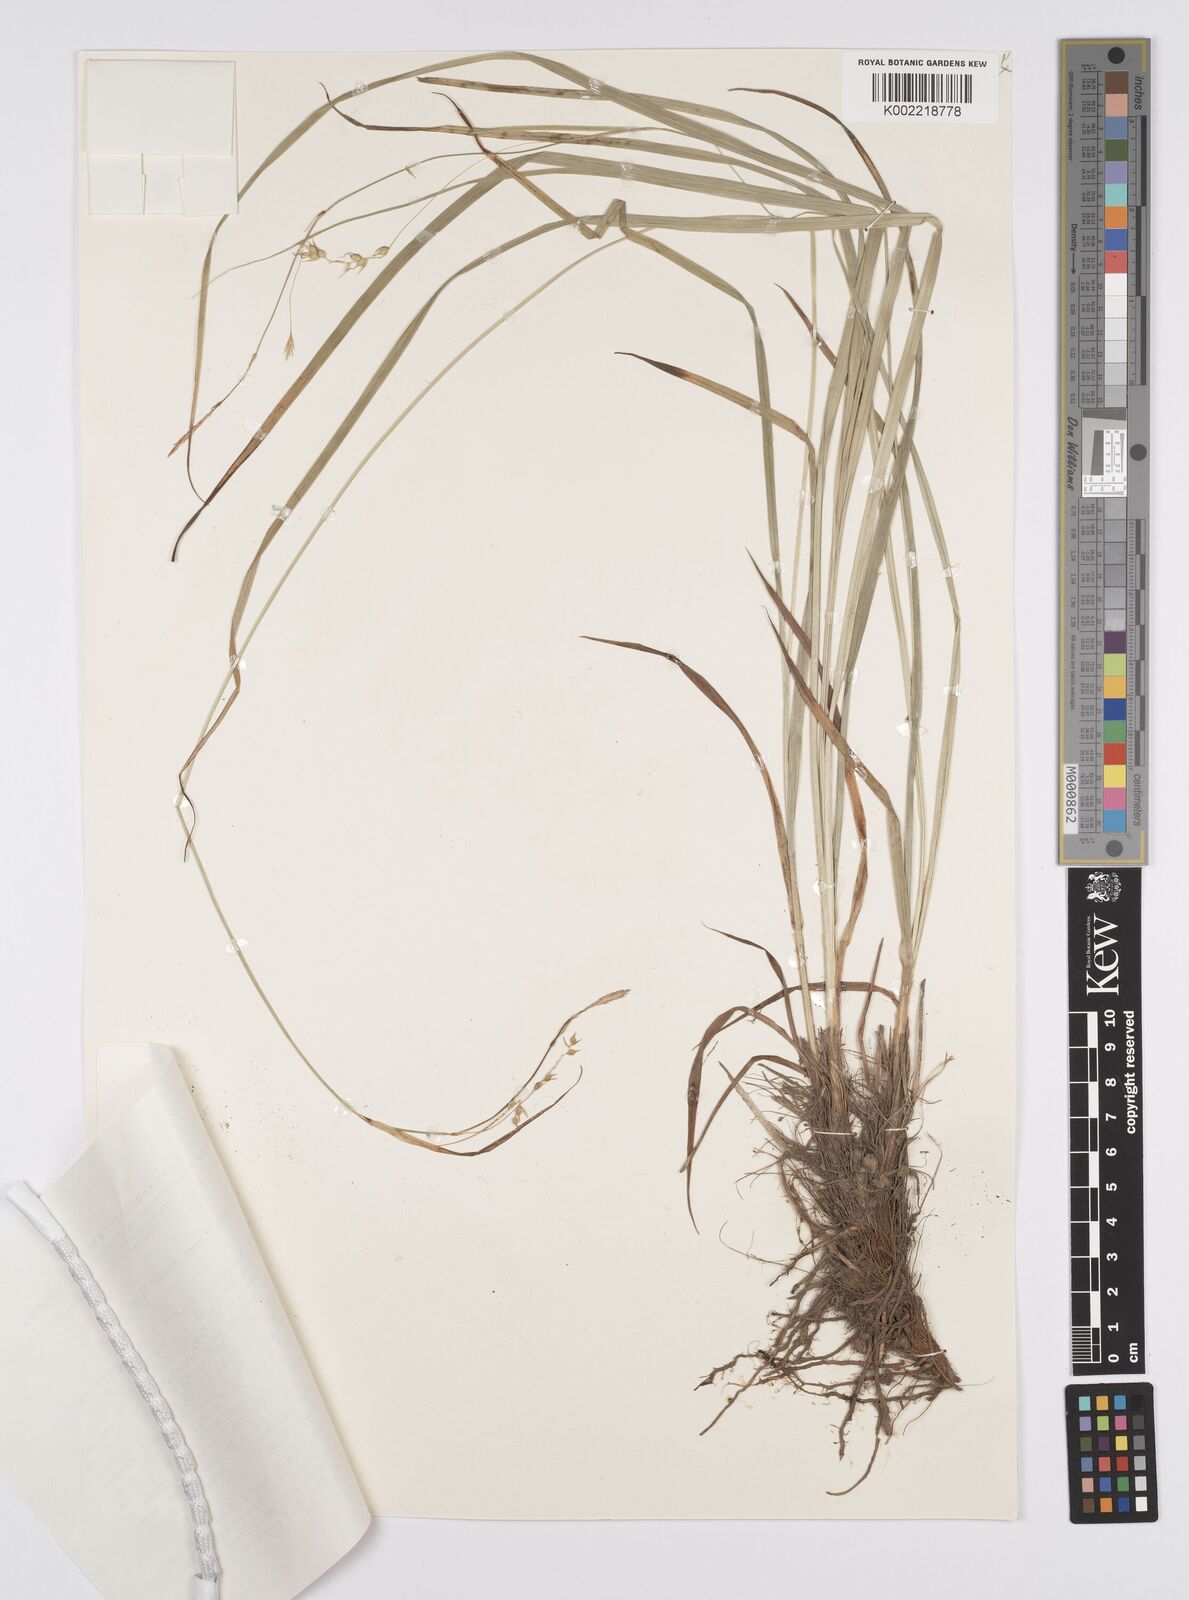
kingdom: Plantae
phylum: Tracheophyta
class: Liliopsida
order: Poales
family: Cyperaceae
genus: Carex
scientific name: Carex arnellii
